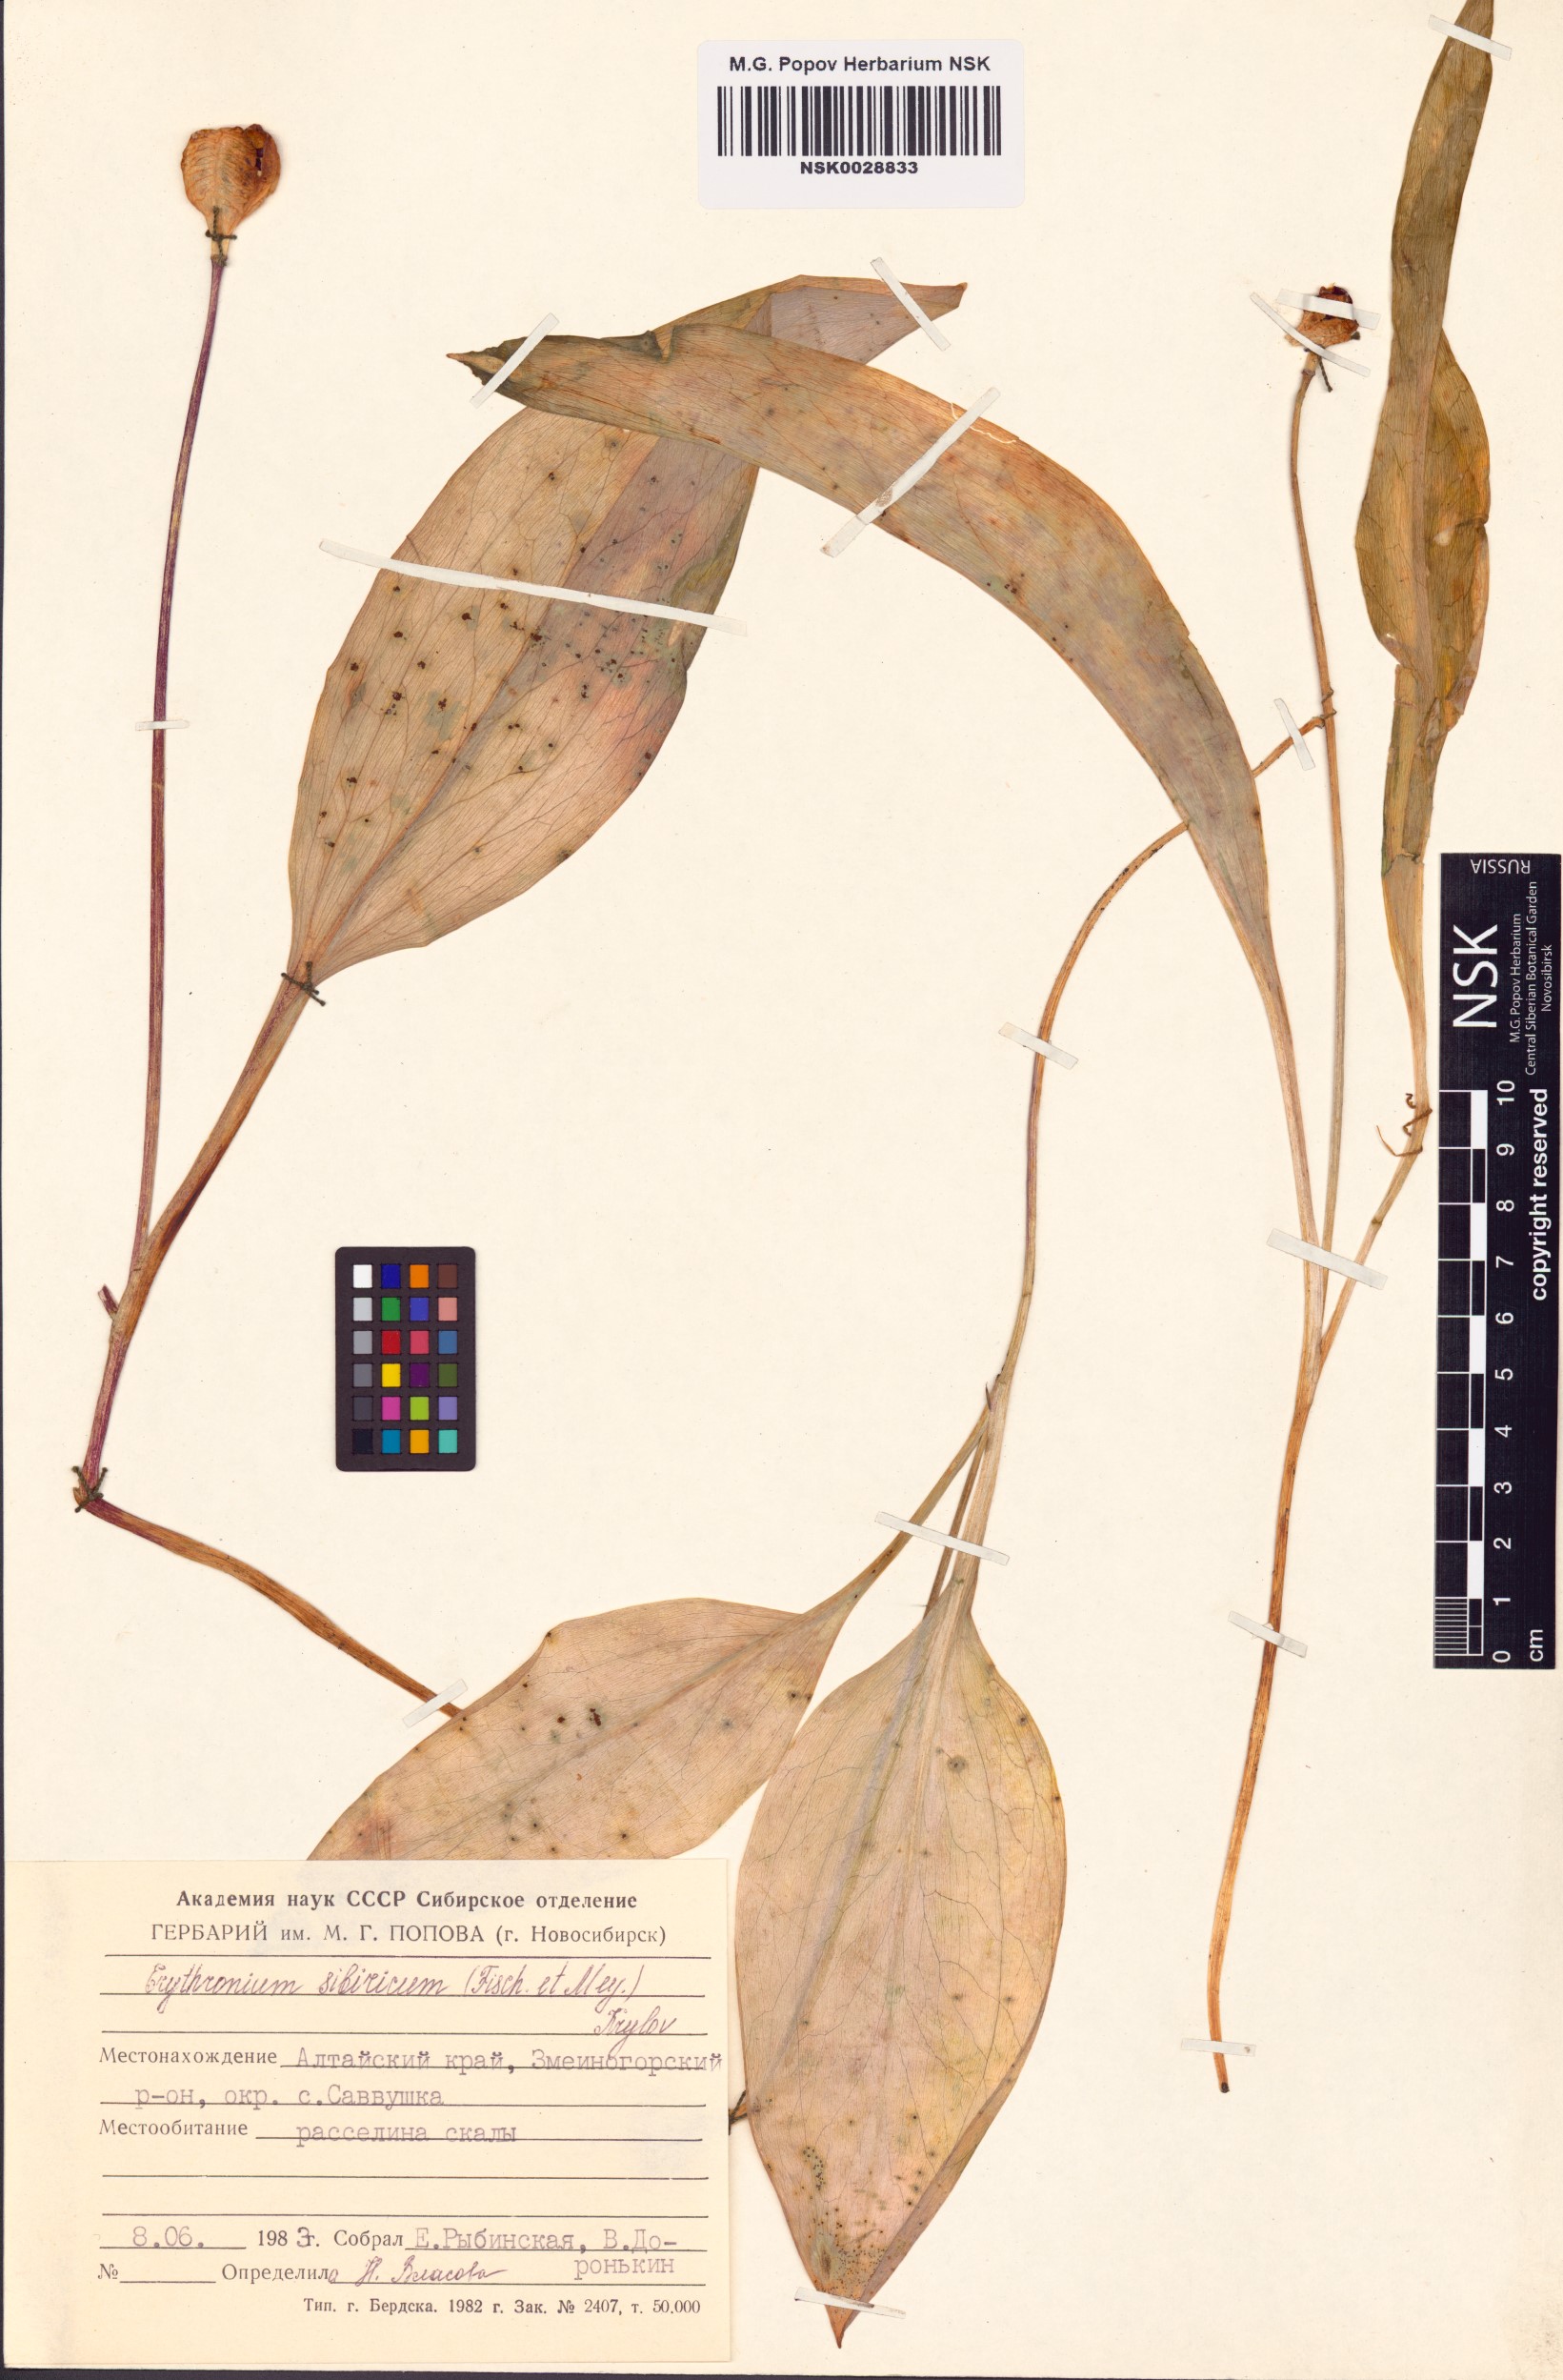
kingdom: Plantae
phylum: Tracheophyta
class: Liliopsida
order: Liliales
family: Liliaceae
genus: Erythronium
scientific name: Erythronium sibiricum
